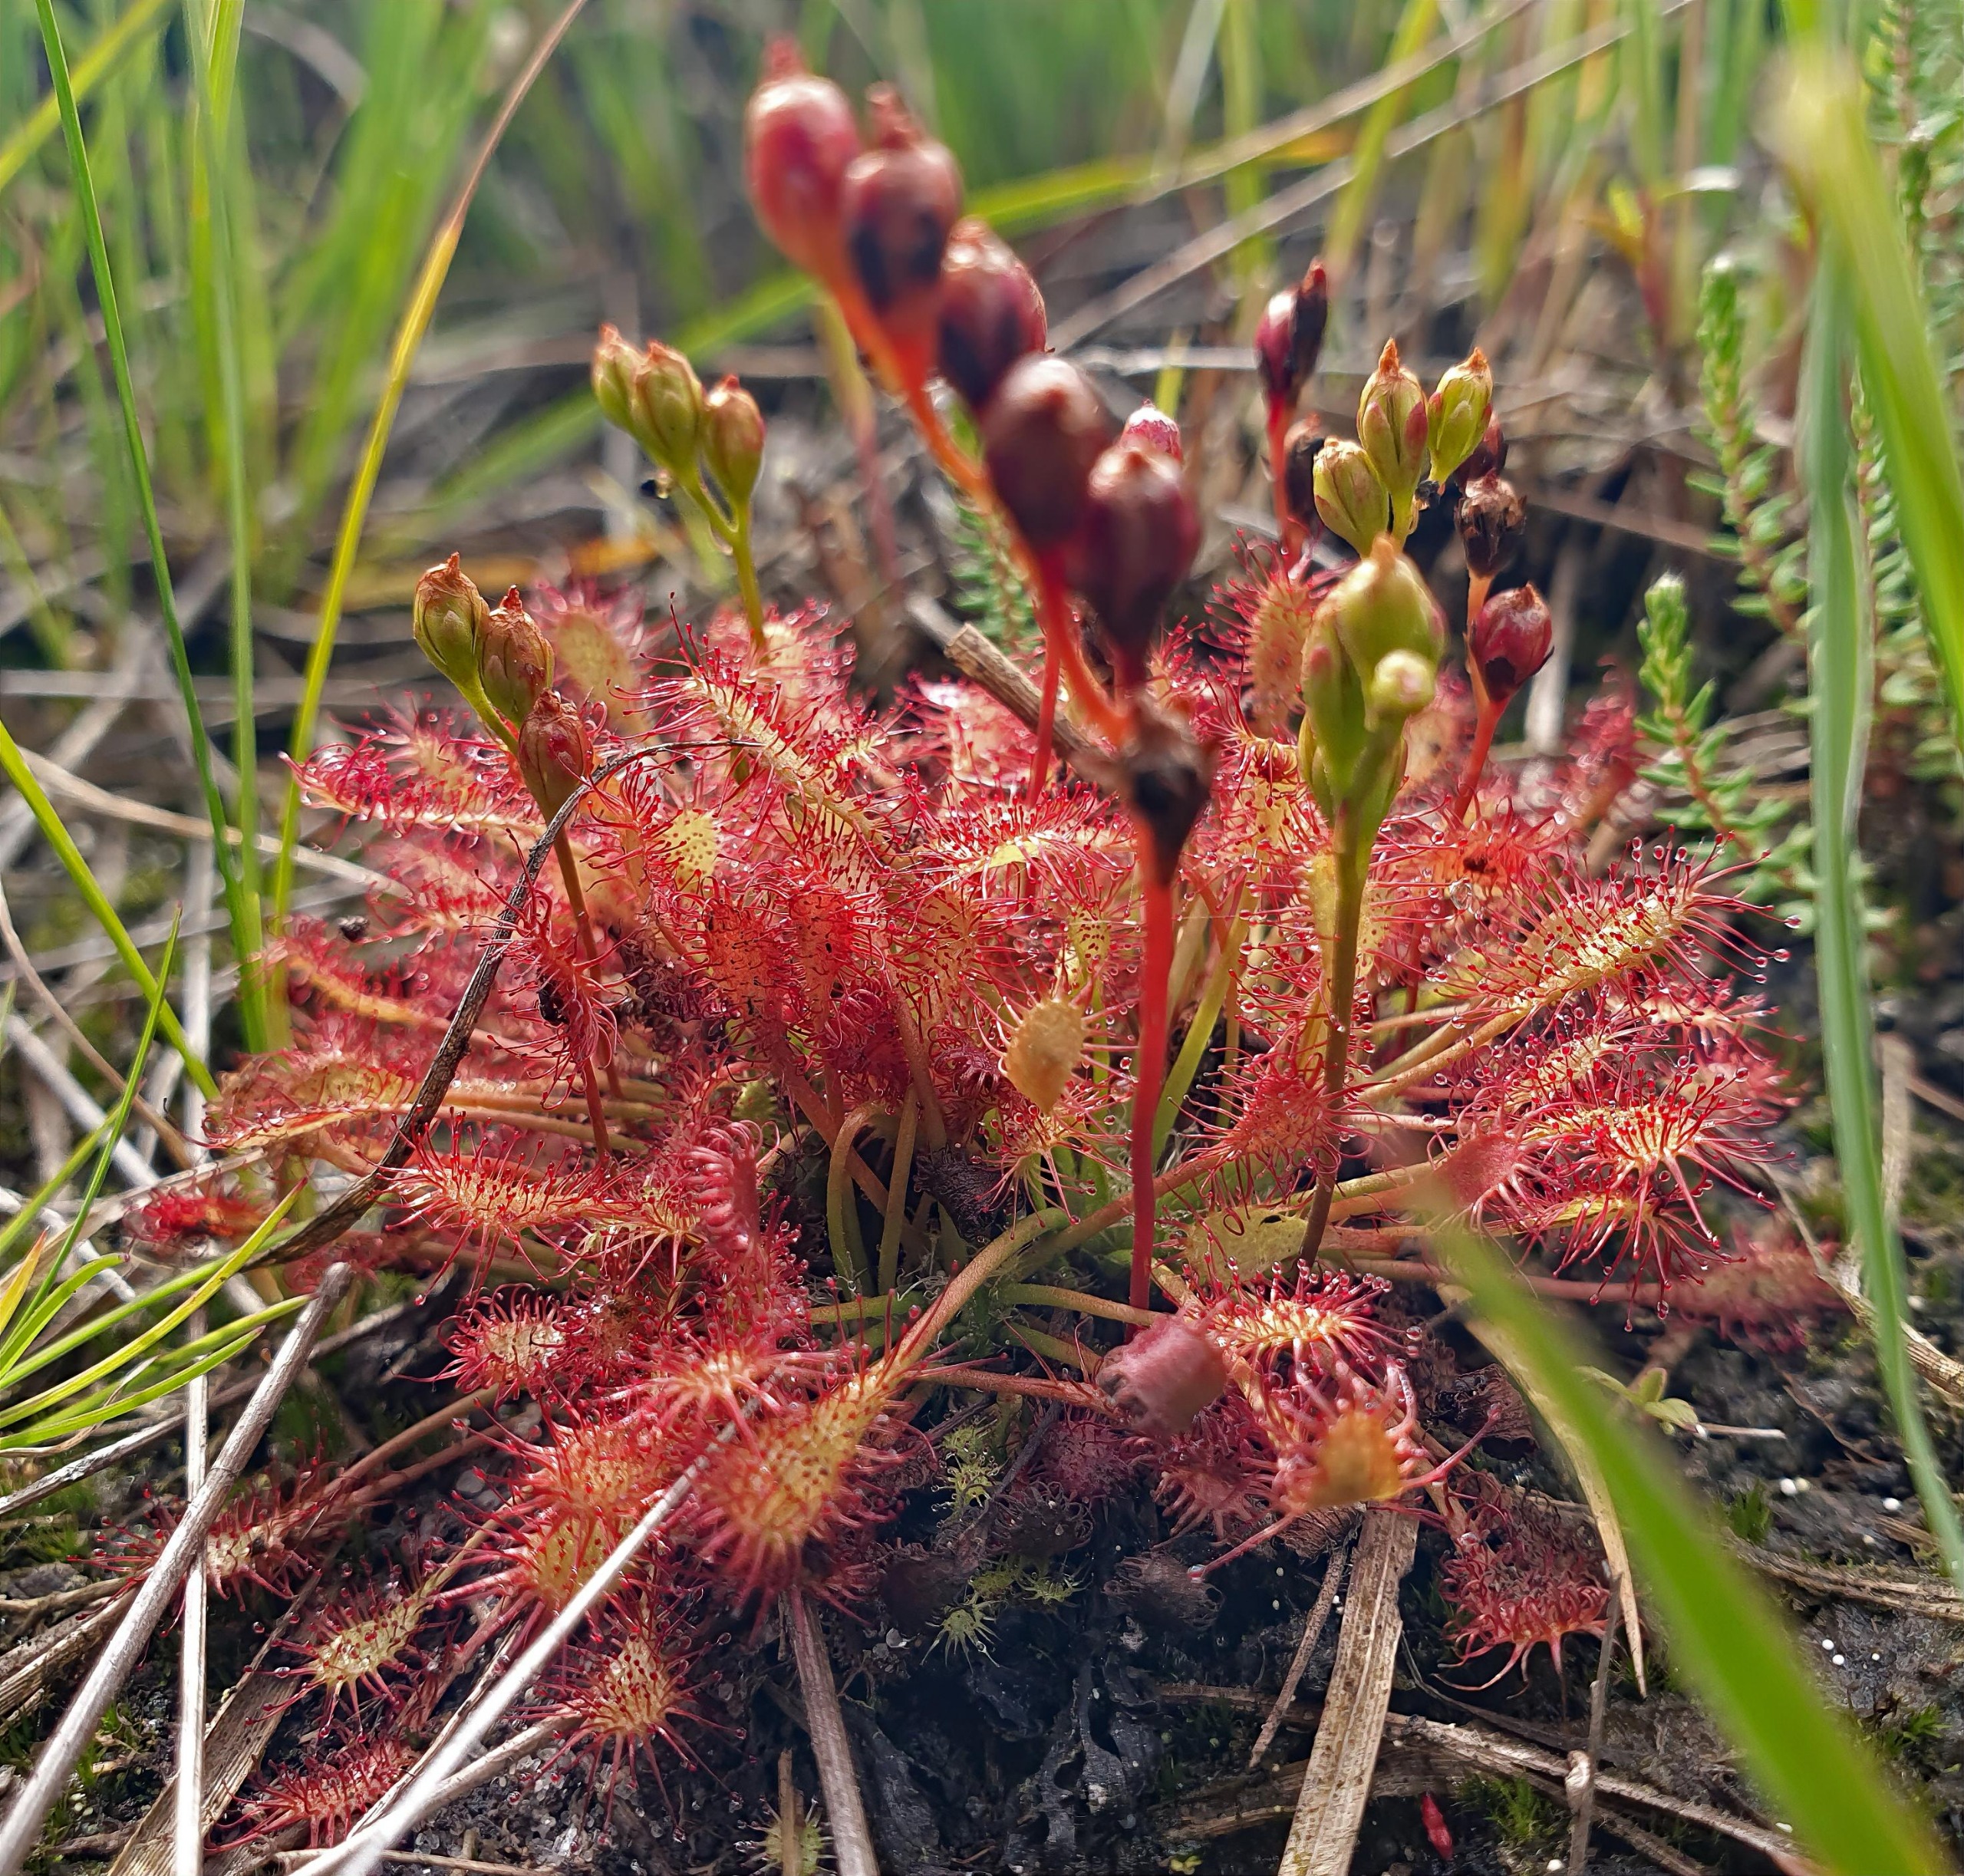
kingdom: Plantae
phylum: Tracheophyta
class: Magnoliopsida
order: Caryophyllales
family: Droseraceae
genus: Drosera
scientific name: Drosera intermedia
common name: Liden soldug
